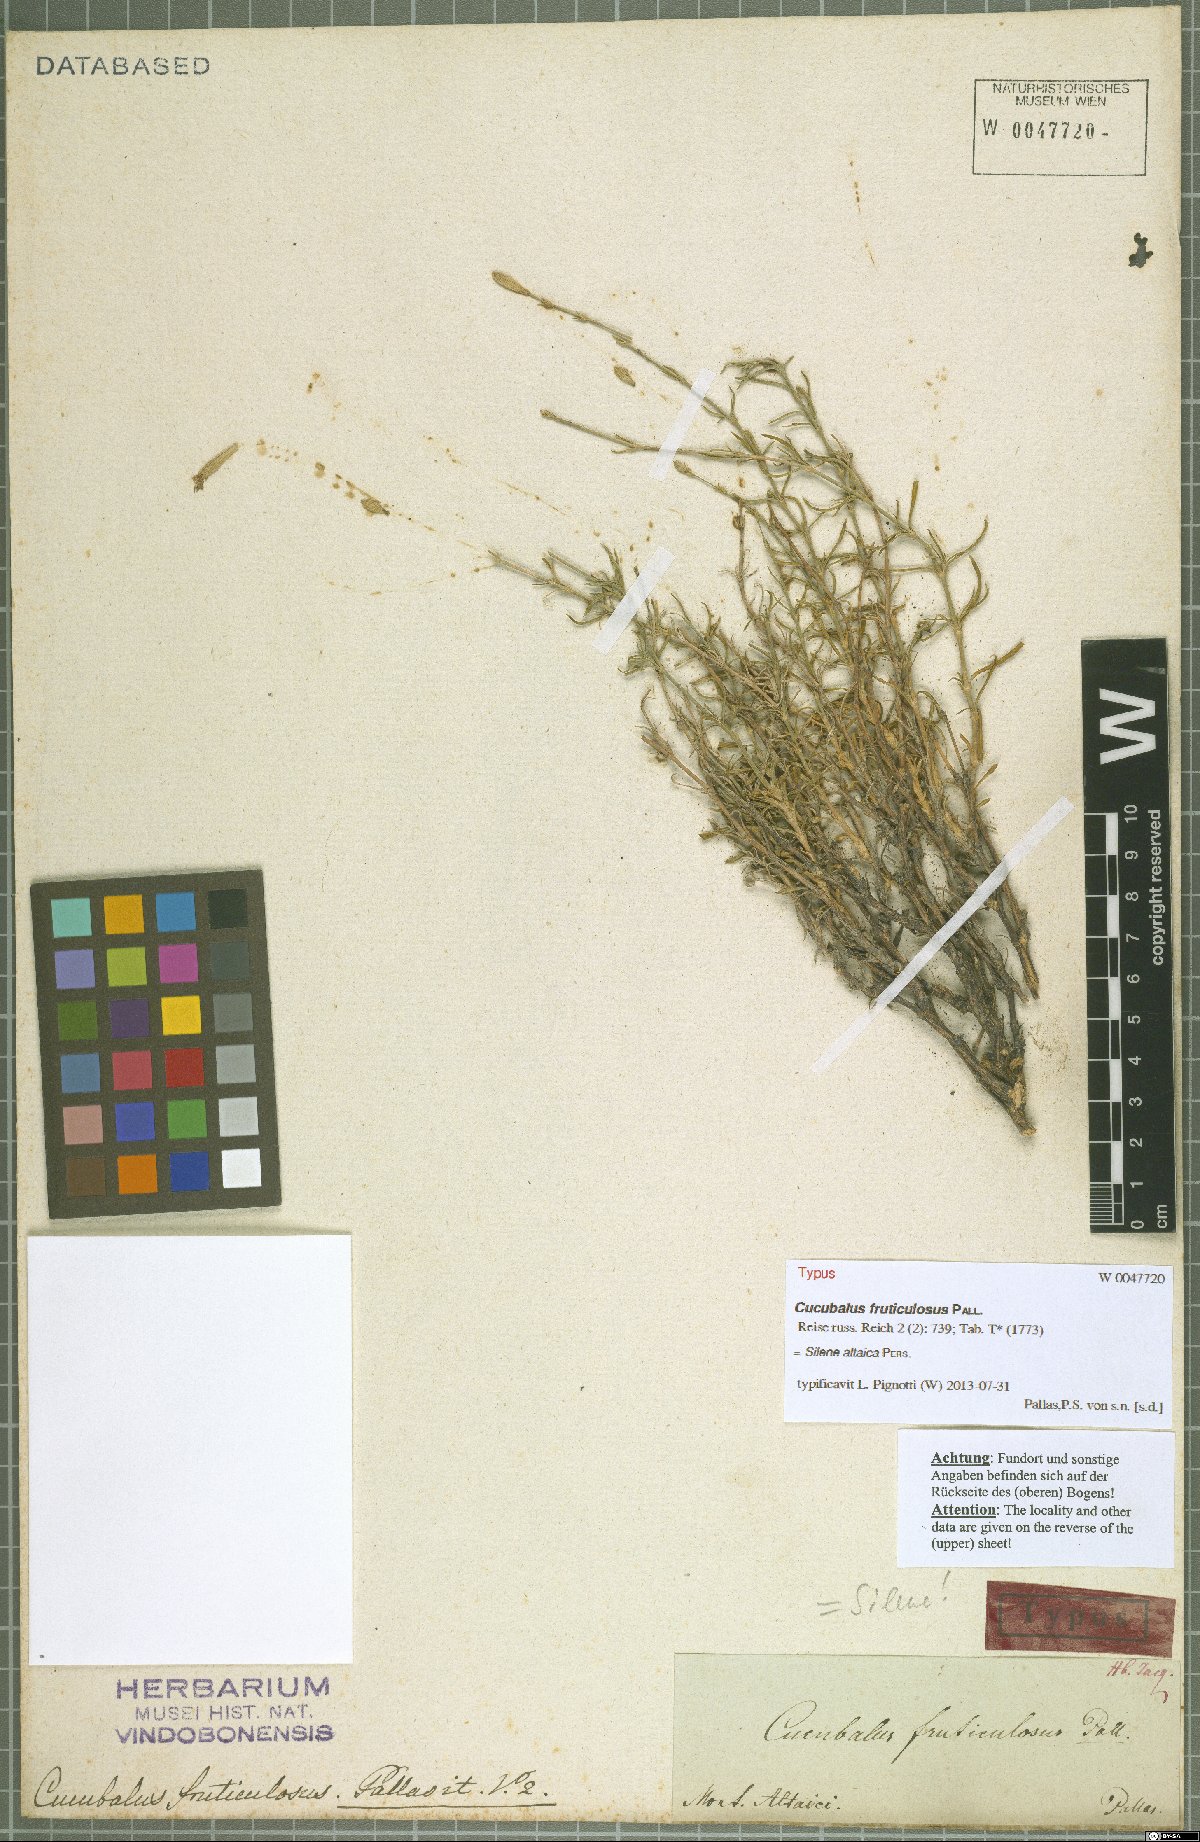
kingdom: Plantae
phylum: Tracheophyta
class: Magnoliopsida
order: Caryophyllales
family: Caryophyllaceae
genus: Silene
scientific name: Silene altaica
